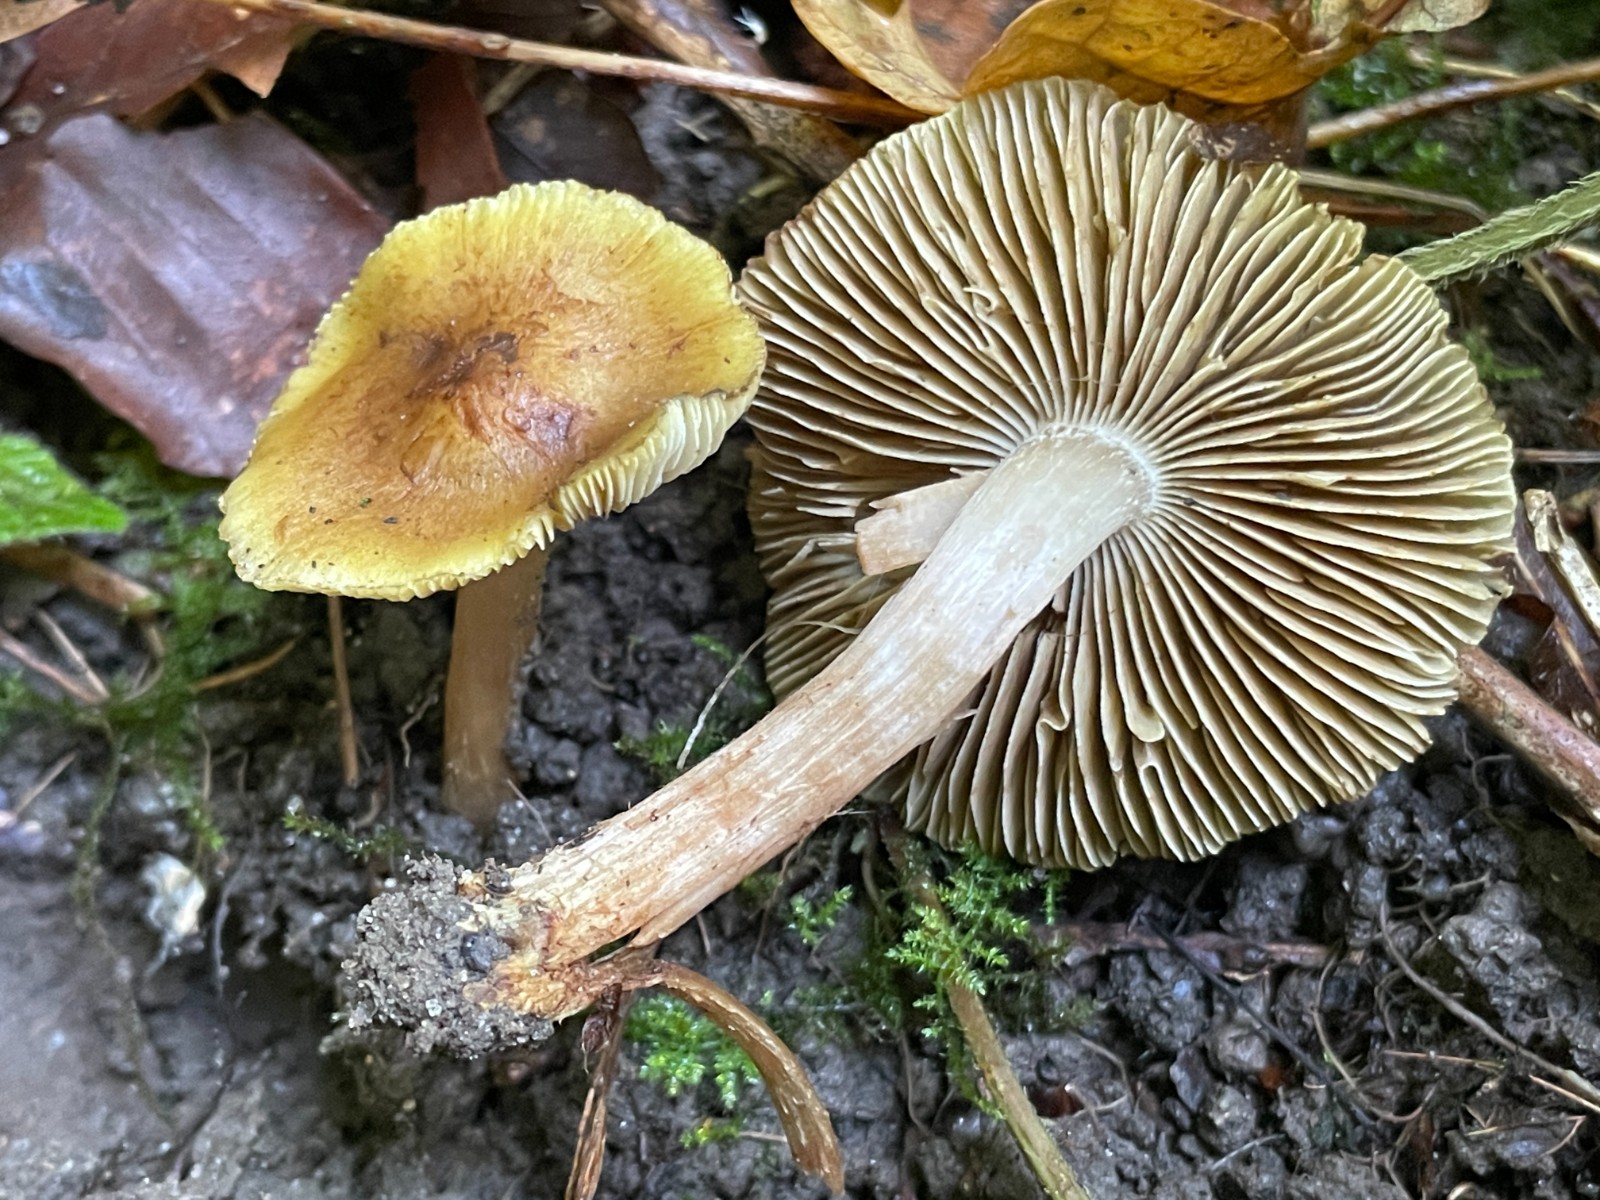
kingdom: Fungi
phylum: Basidiomycota
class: Agaricomycetes
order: Agaricales
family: Inocybaceae
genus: Pseudosperma
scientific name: Pseudosperma maleolens
